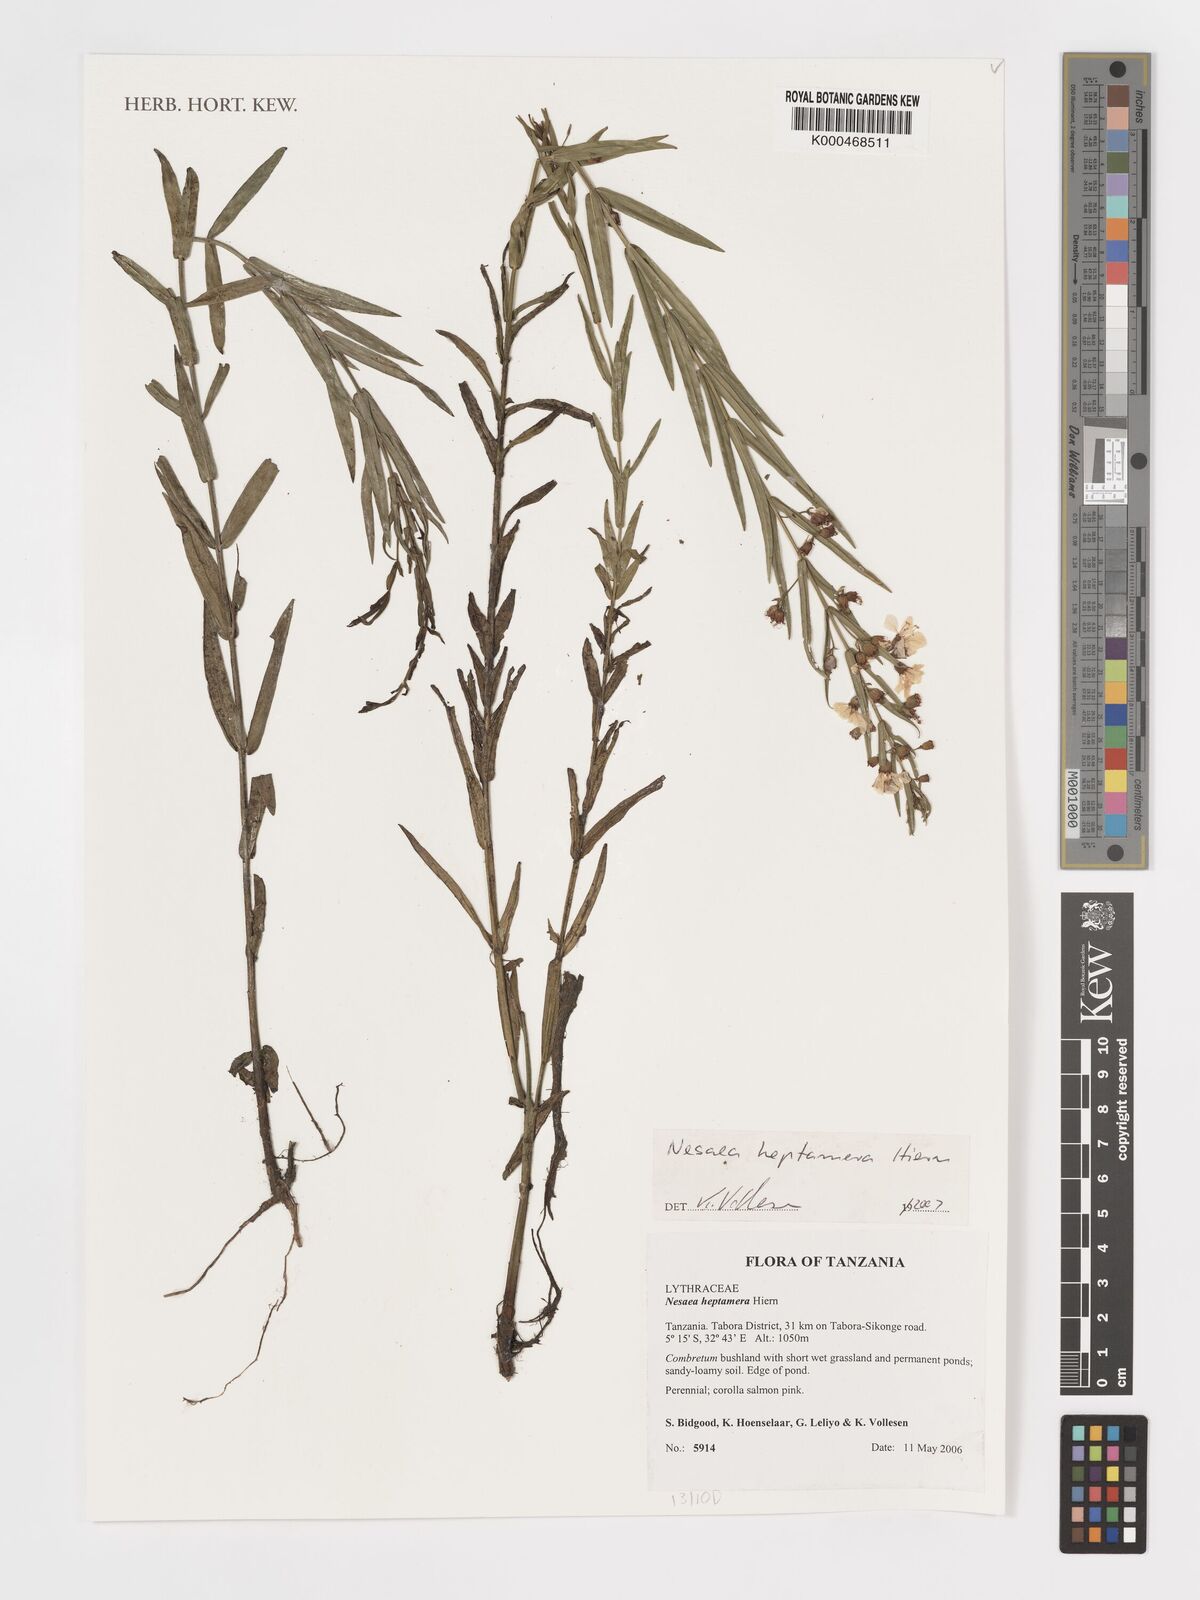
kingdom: Plantae
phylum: Tracheophyta
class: Magnoliopsida
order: Myrtales
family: Lythraceae
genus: Ammannia
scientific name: Ammannia heptamera
